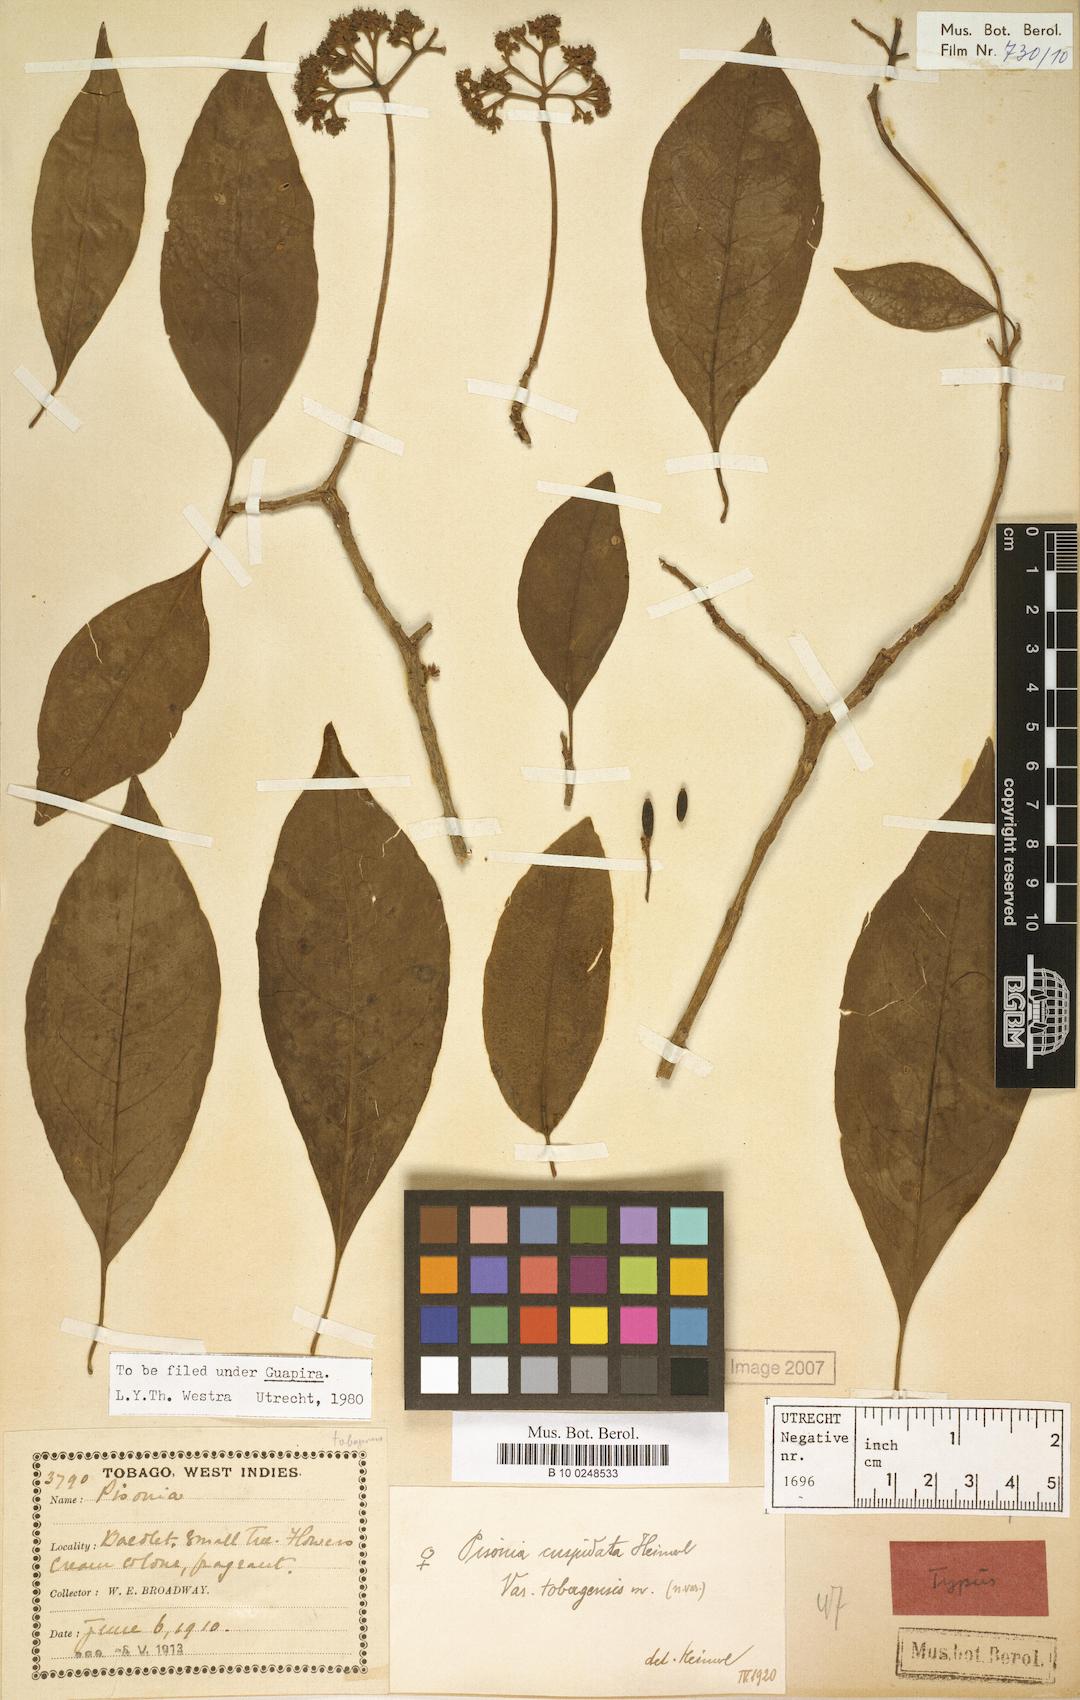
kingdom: Plantae
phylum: Tracheophyta
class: Magnoliopsida
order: Caryophyllales
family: Nyctaginaceae
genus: Guapira
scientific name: Guapira cuspidata
